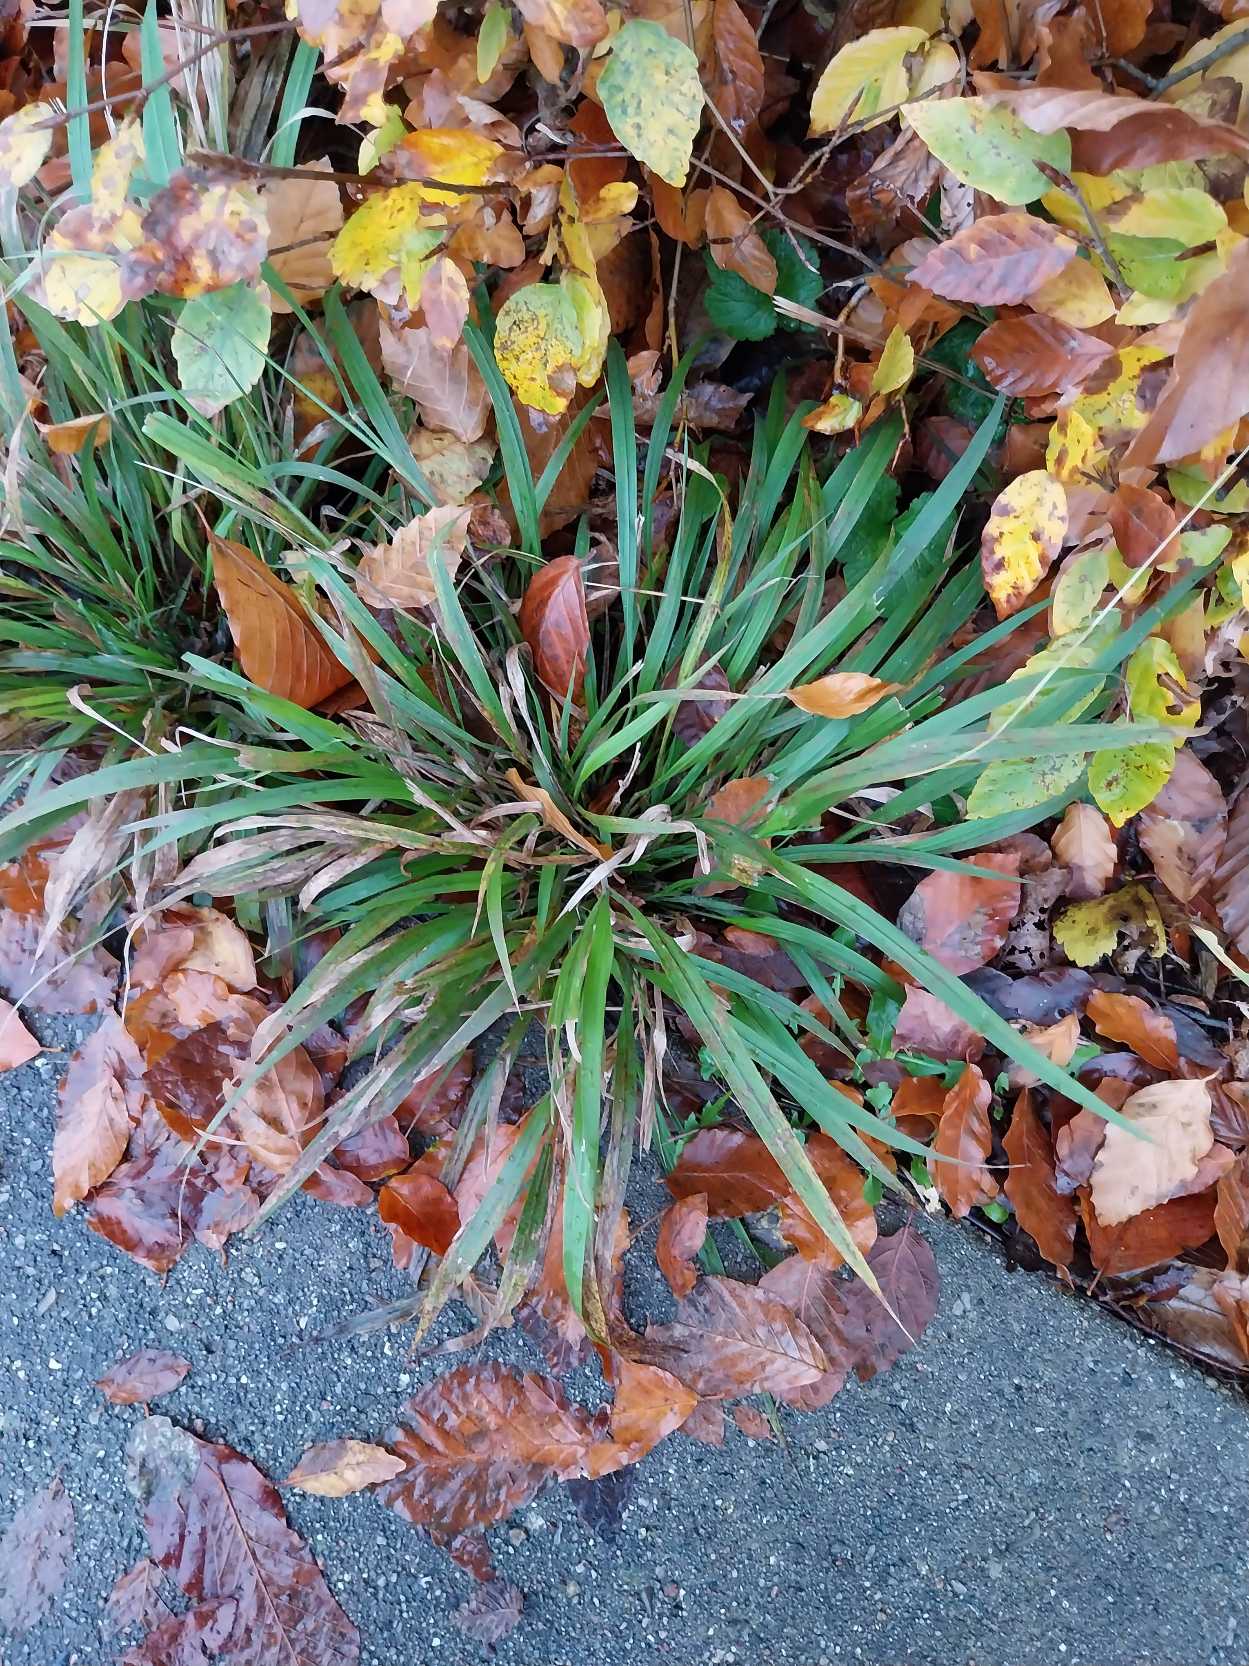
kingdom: Plantae
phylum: Tracheophyta
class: Liliopsida
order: Poales
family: Poaceae
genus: Brachypodium
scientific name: Brachypodium sylvaticum
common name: Skov-stilkaks
